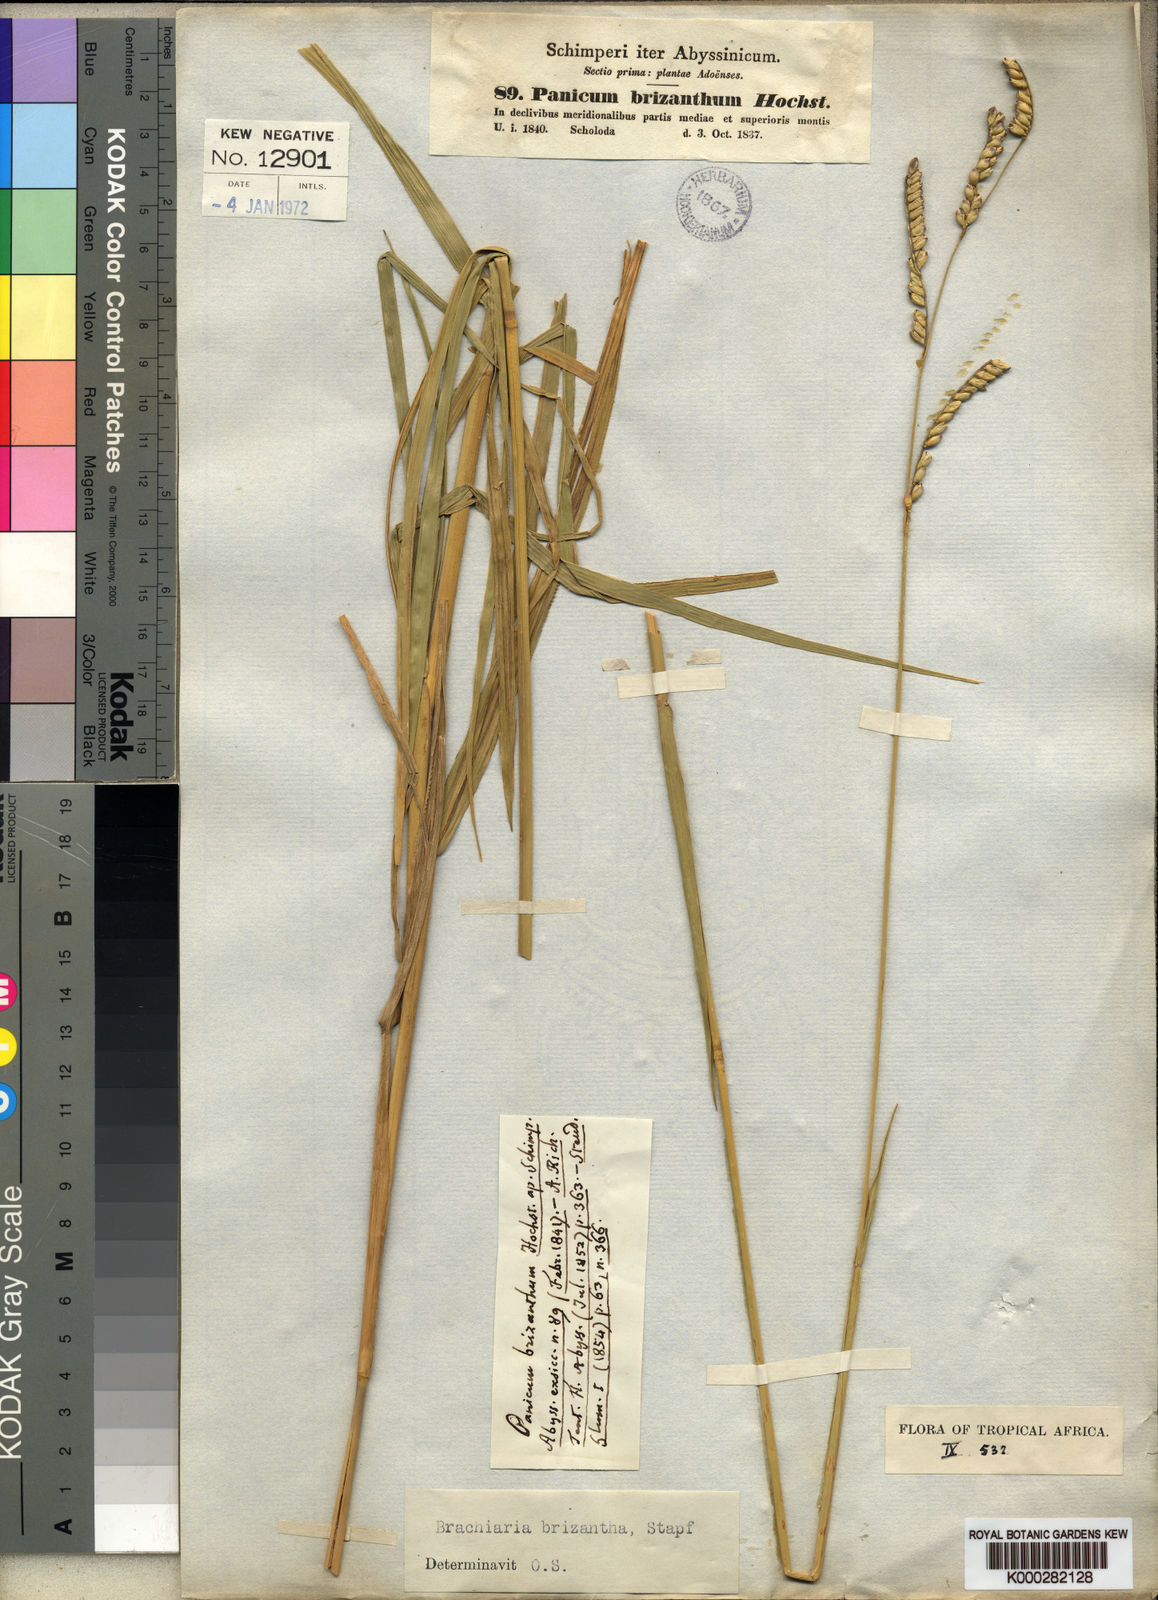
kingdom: Plantae
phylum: Tracheophyta
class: Liliopsida
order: Poales
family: Poaceae
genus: Urochloa
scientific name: Urochloa brizantha
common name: Palisade signalgrass
